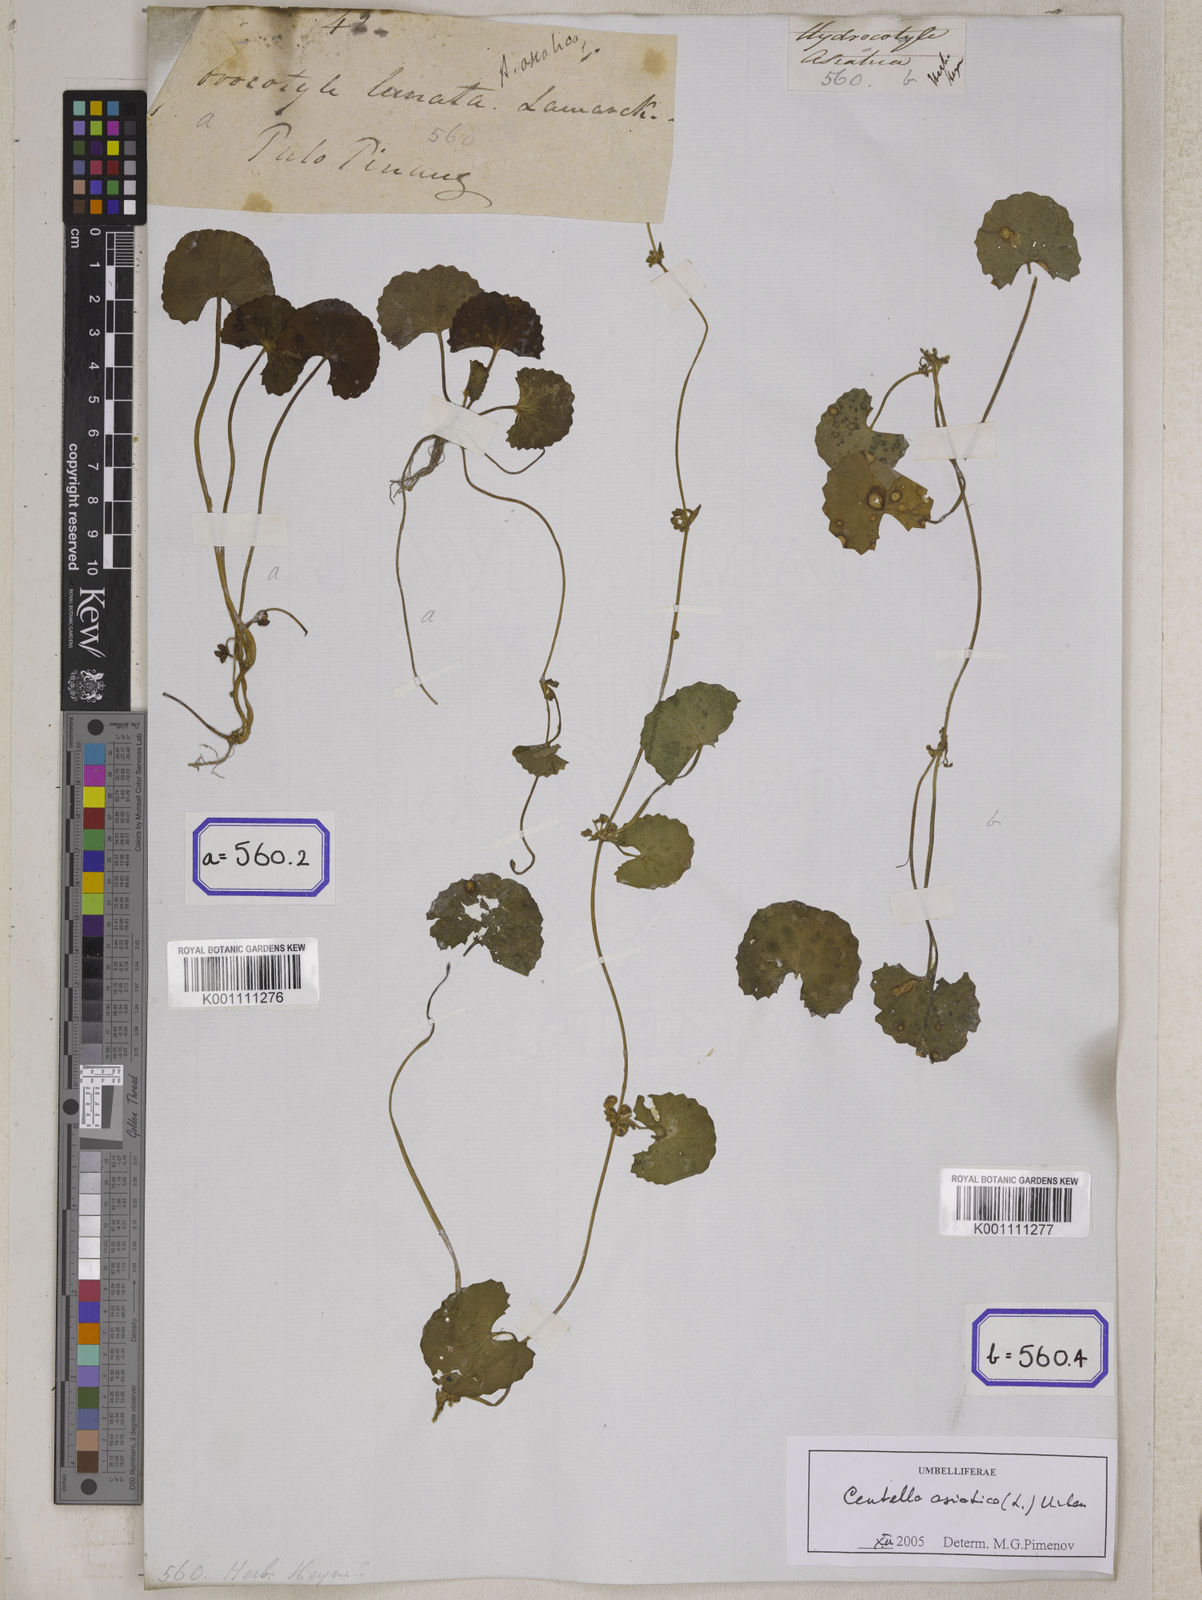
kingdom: Plantae
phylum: Tracheophyta
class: Magnoliopsida
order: Apiales
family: Apiaceae
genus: Centella
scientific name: Centella asiatica
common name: Spadeleaf
